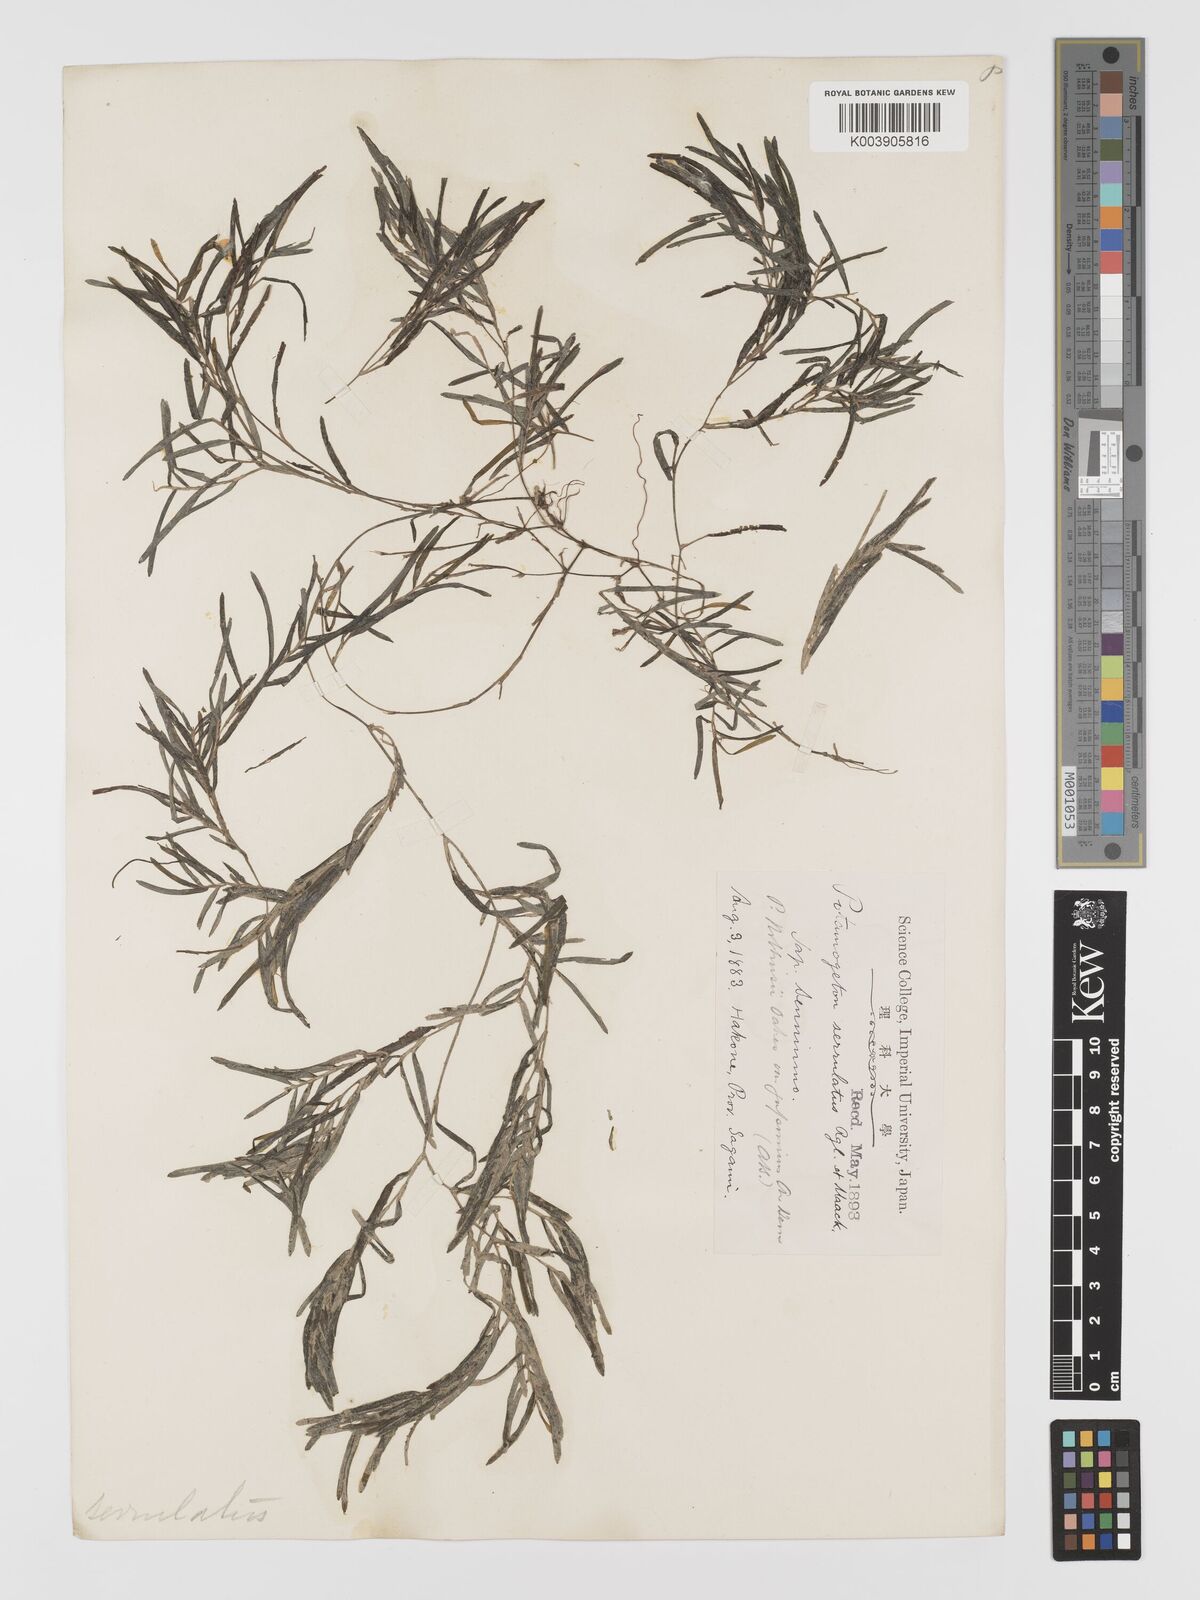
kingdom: Plantae
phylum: Tracheophyta
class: Liliopsida
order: Alismatales
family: Potamogetonaceae
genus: Potamogeton
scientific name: Potamogeton maackianus
